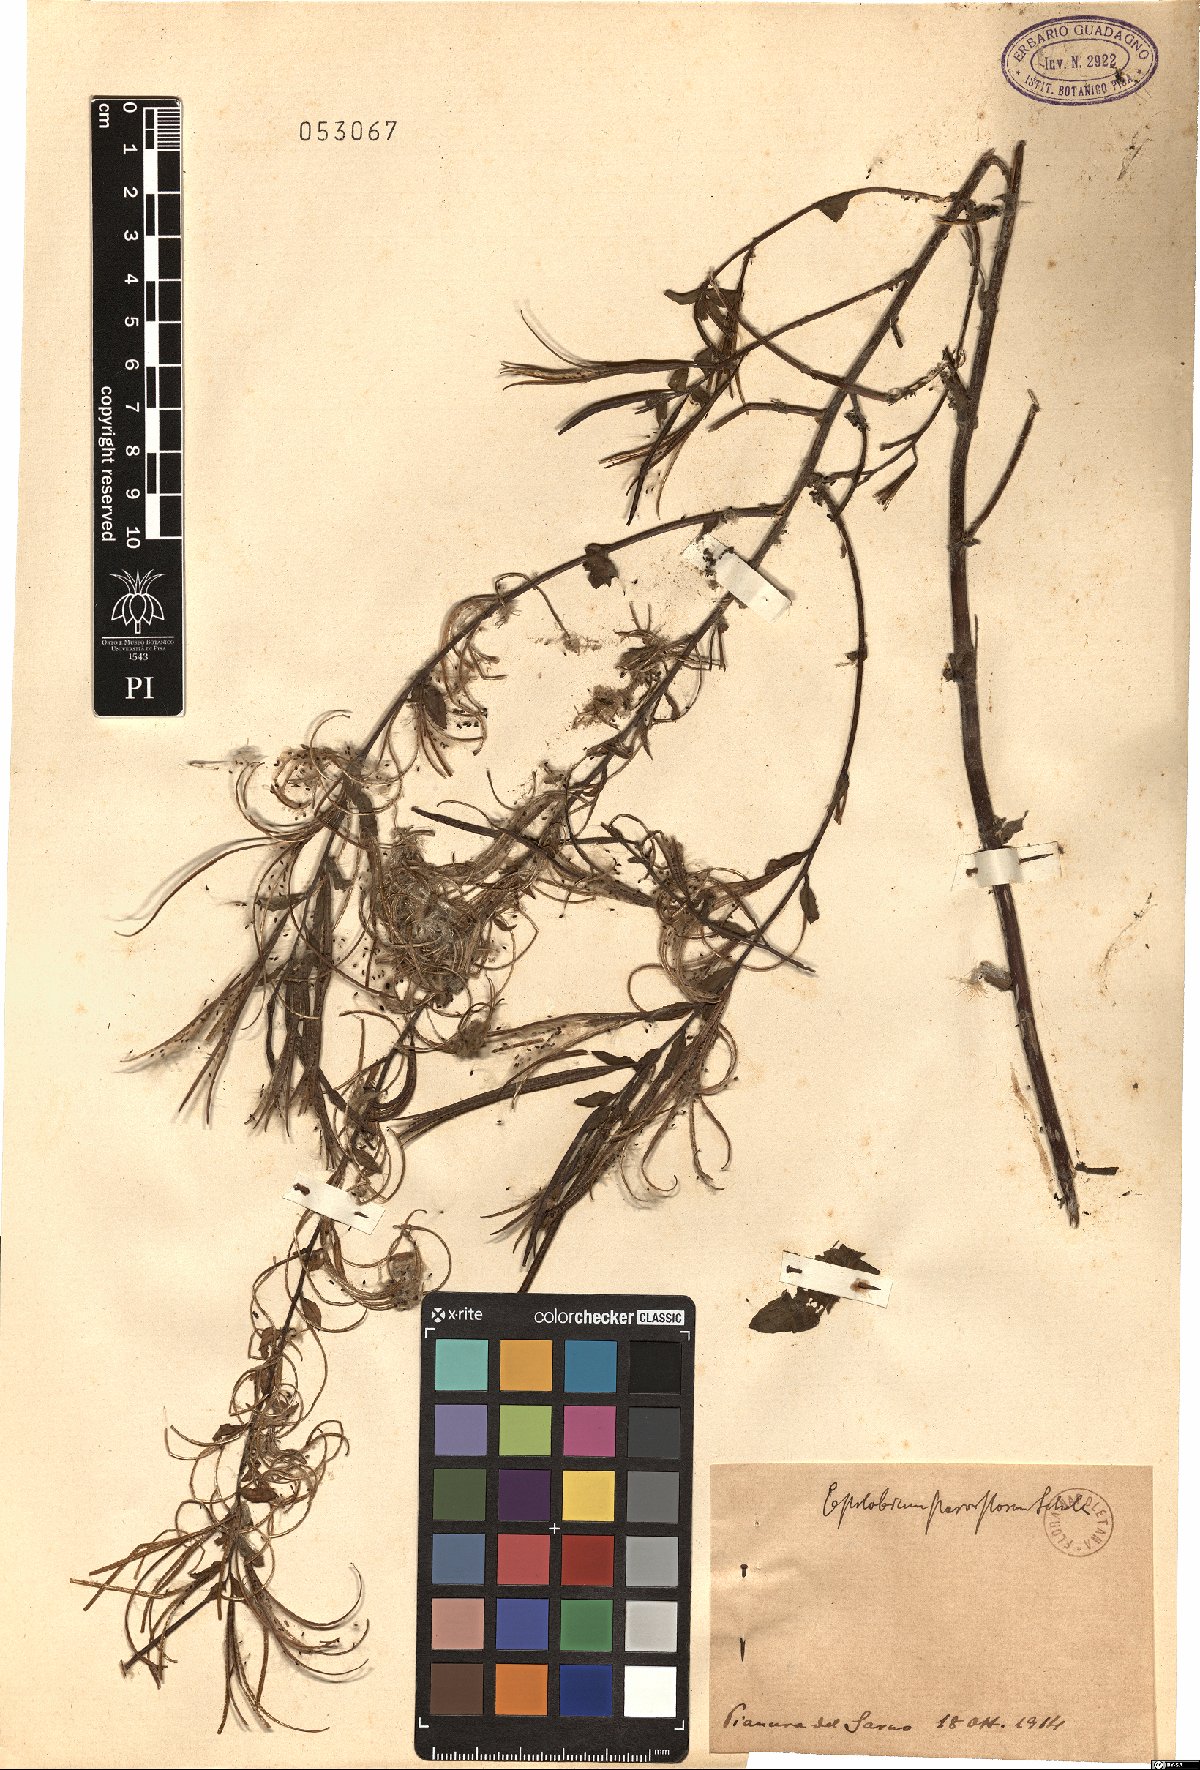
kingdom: Plantae
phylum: Tracheophyta
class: Magnoliopsida
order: Myrtales
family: Onagraceae
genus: Epilobium
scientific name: Epilobium parviflorum
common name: Hoary willowherb
